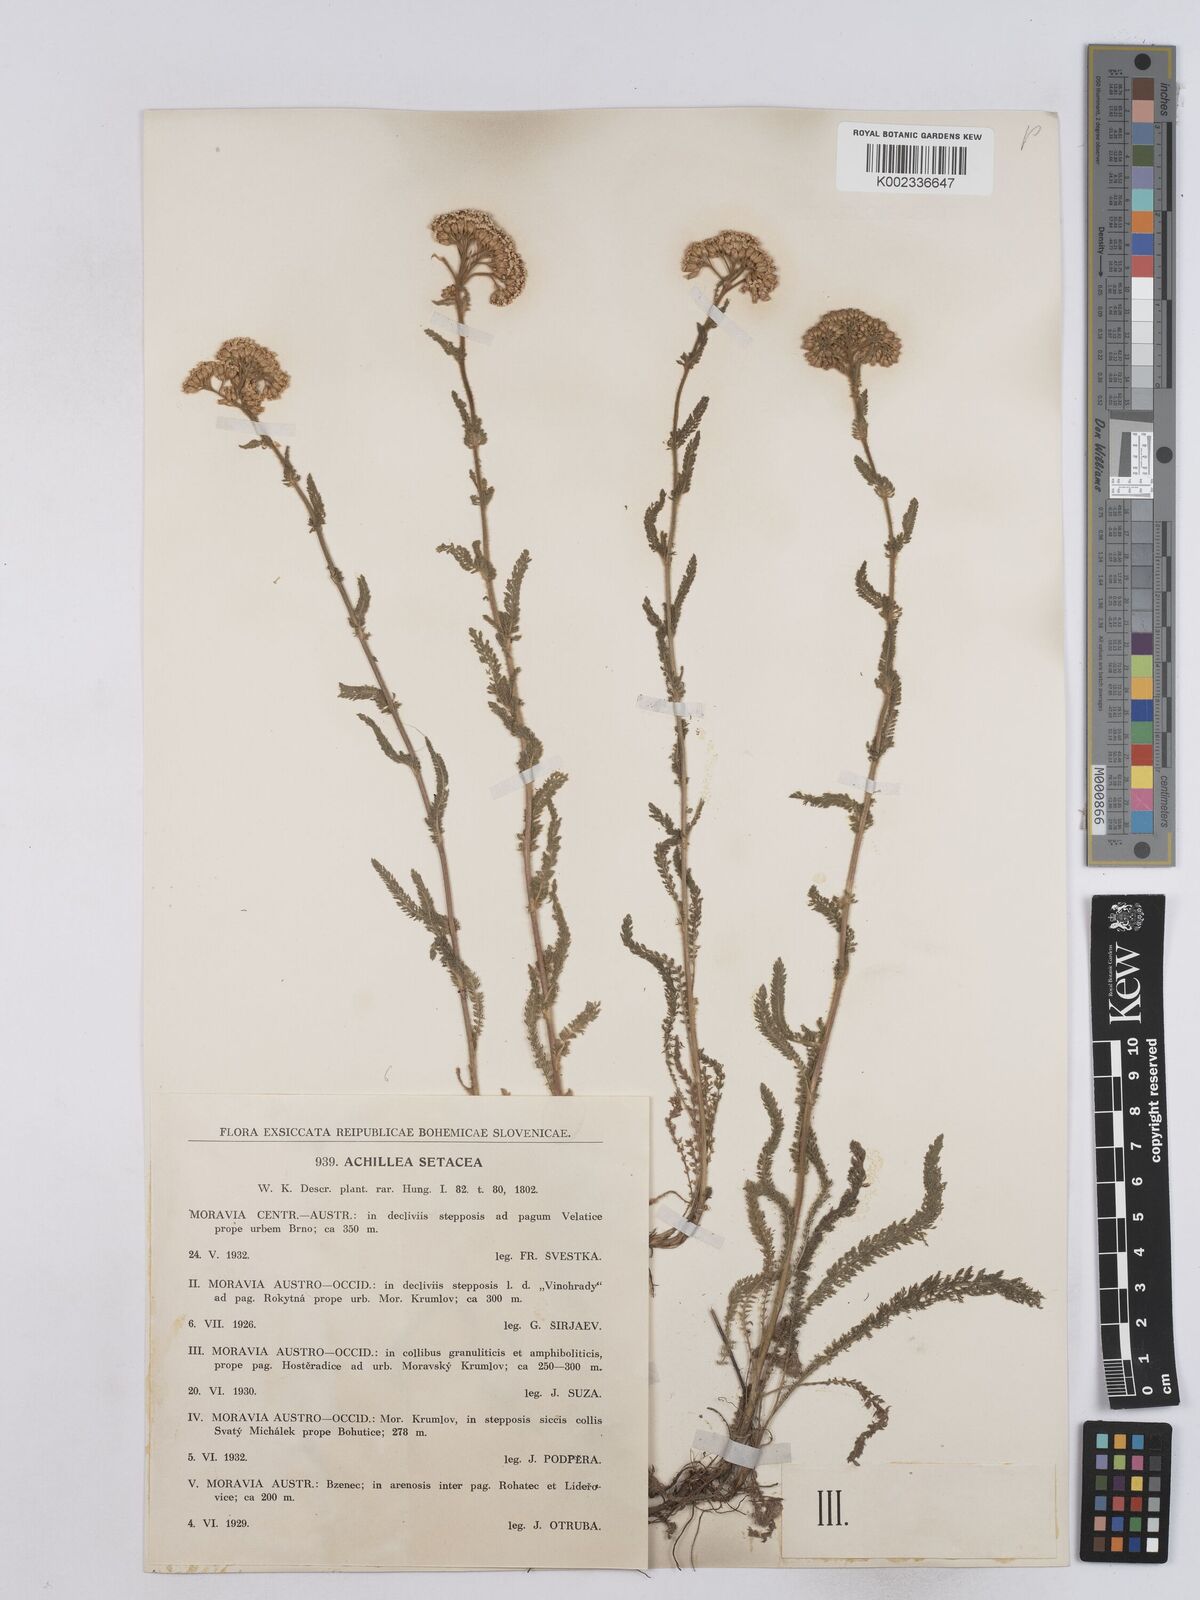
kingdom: Plantae
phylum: Tracheophyta
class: Magnoliopsida
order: Asterales
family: Asteraceae
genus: Achillea
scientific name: Achillea setacea
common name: Bristly yarrow
